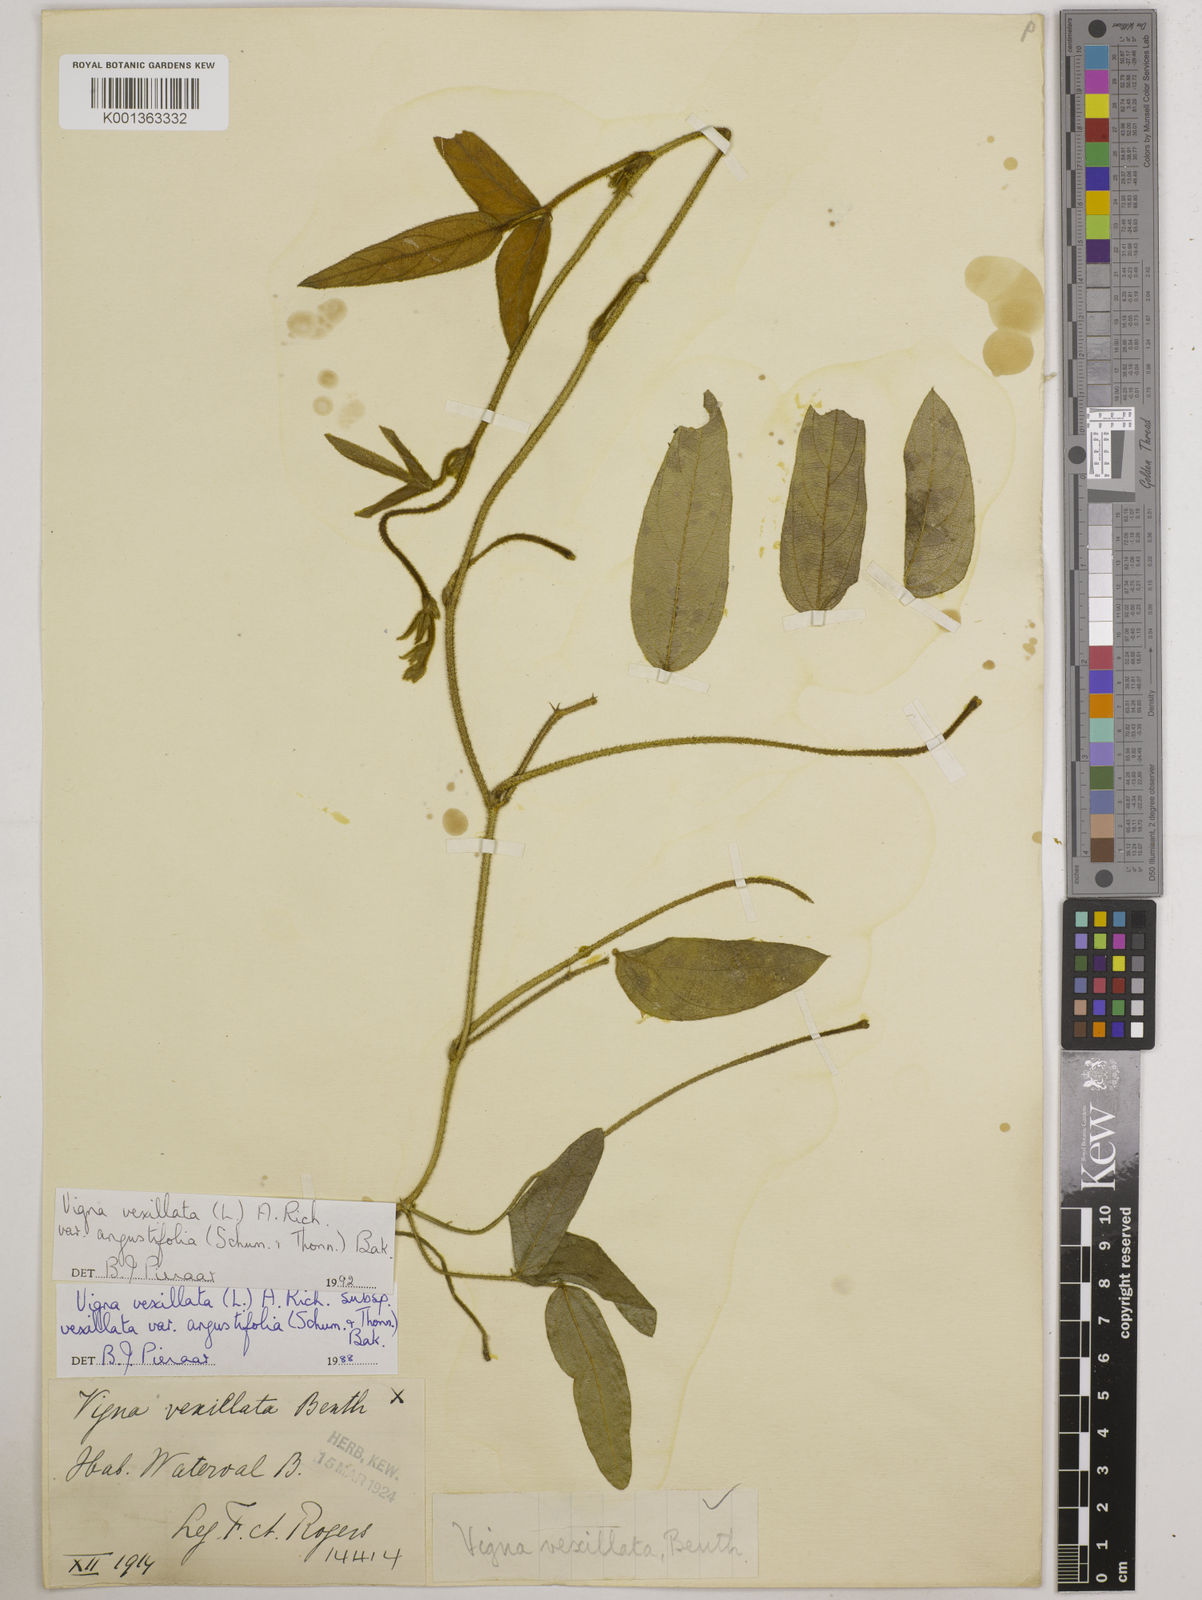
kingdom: Plantae
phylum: Tracheophyta
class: Magnoliopsida
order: Fabales
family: Fabaceae
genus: Vigna
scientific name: Vigna
